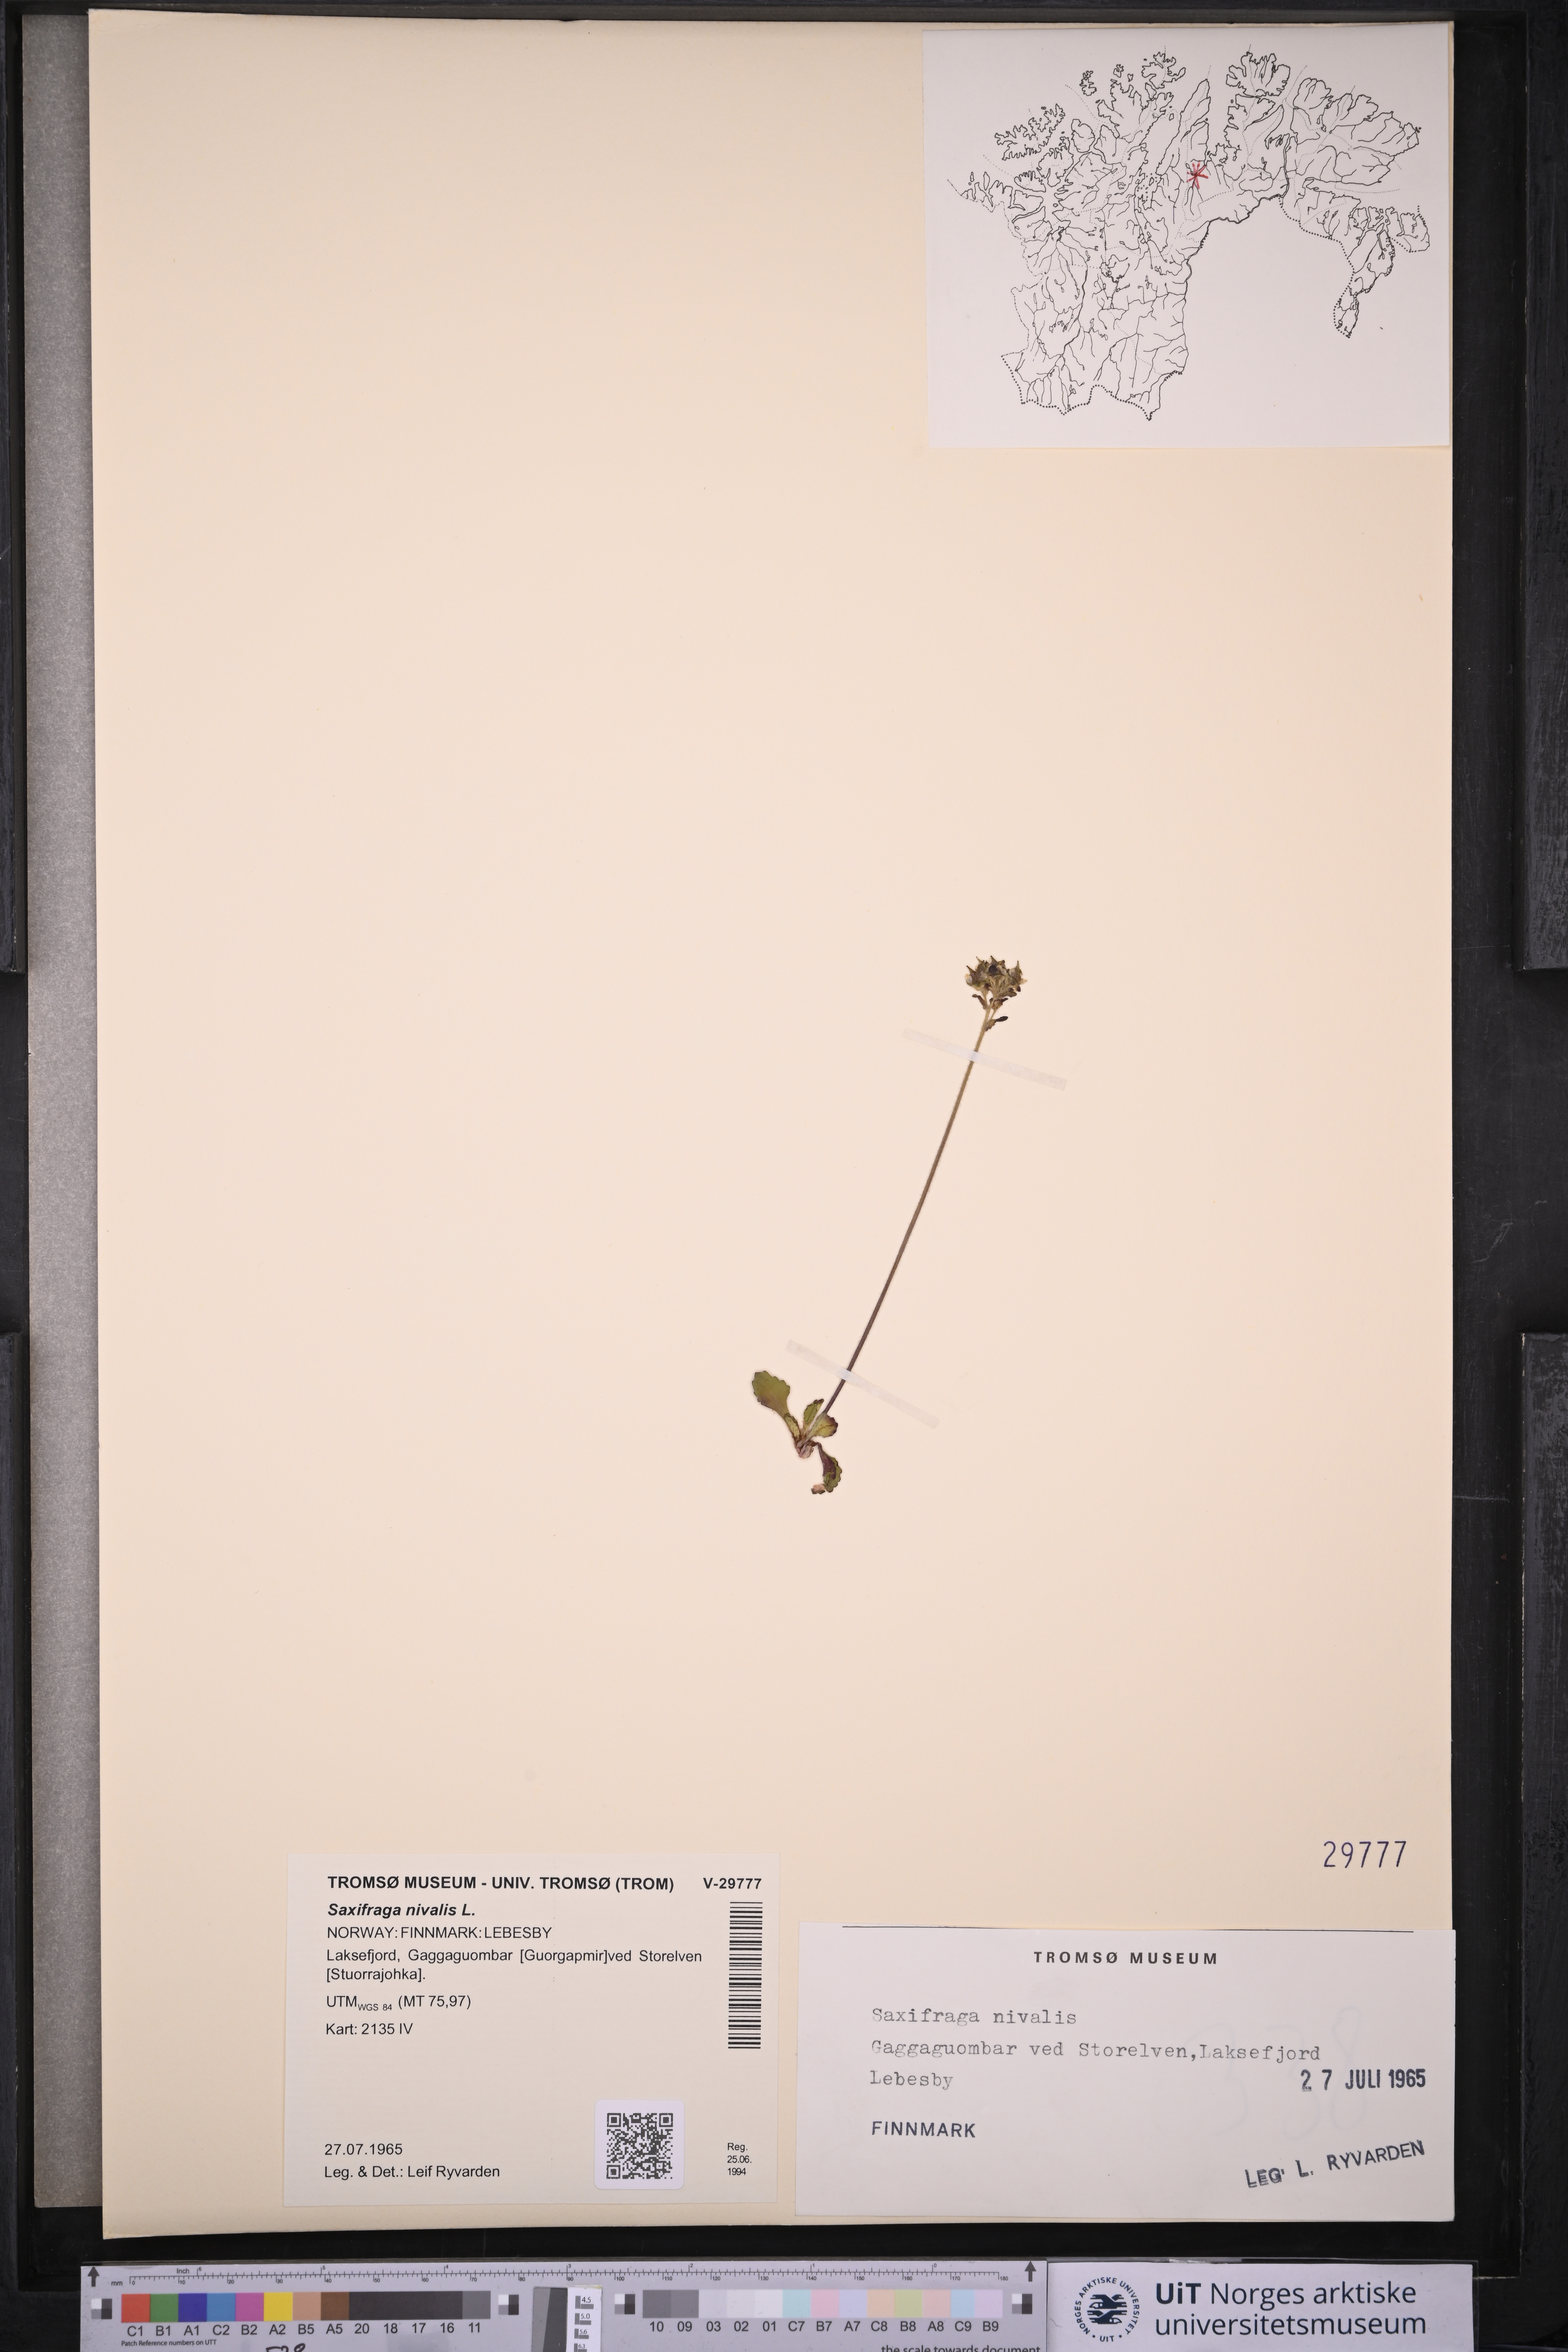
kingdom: Plantae
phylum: Tracheophyta
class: Magnoliopsida
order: Saxifragales
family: Saxifragaceae
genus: Micranthes
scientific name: Micranthes nivalis
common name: Alpine saxifrage
